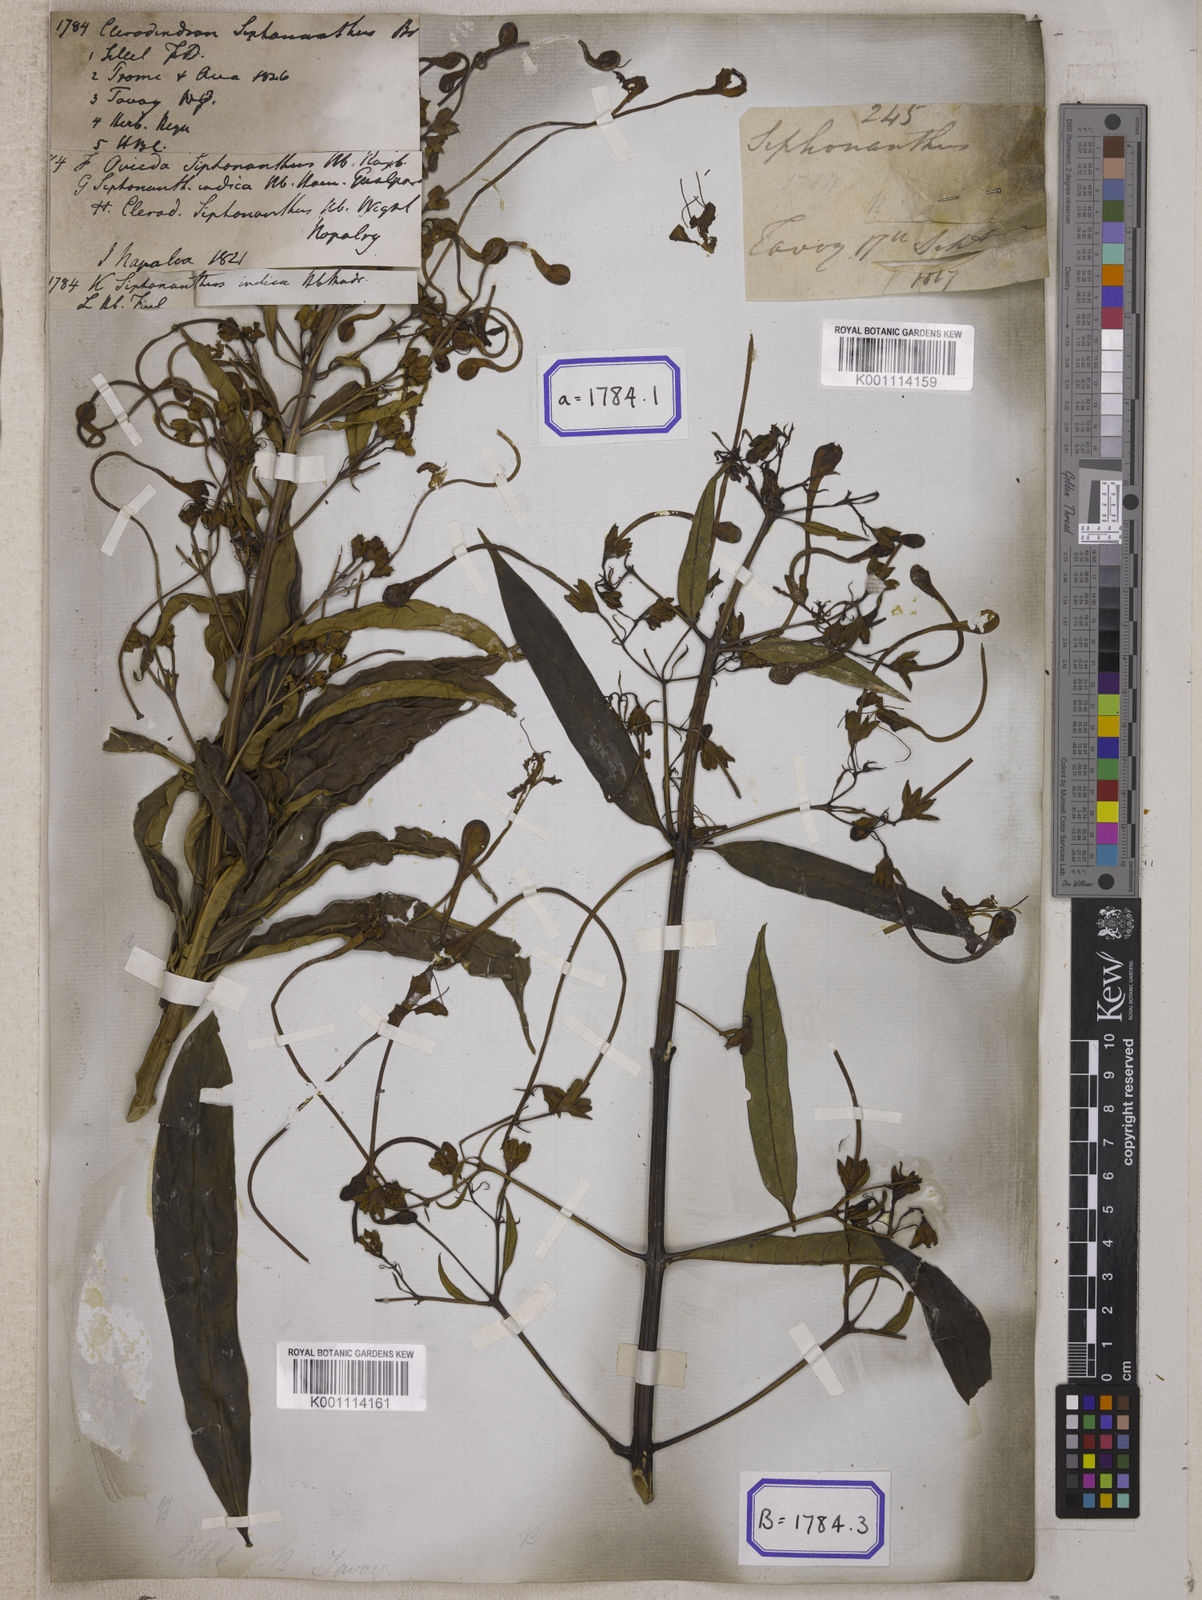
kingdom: Plantae
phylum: Tracheophyta
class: Magnoliopsida
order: Lamiales
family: Lamiaceae
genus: Clerodendrum
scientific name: Clerodendrum indicum
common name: Turk's turbin
